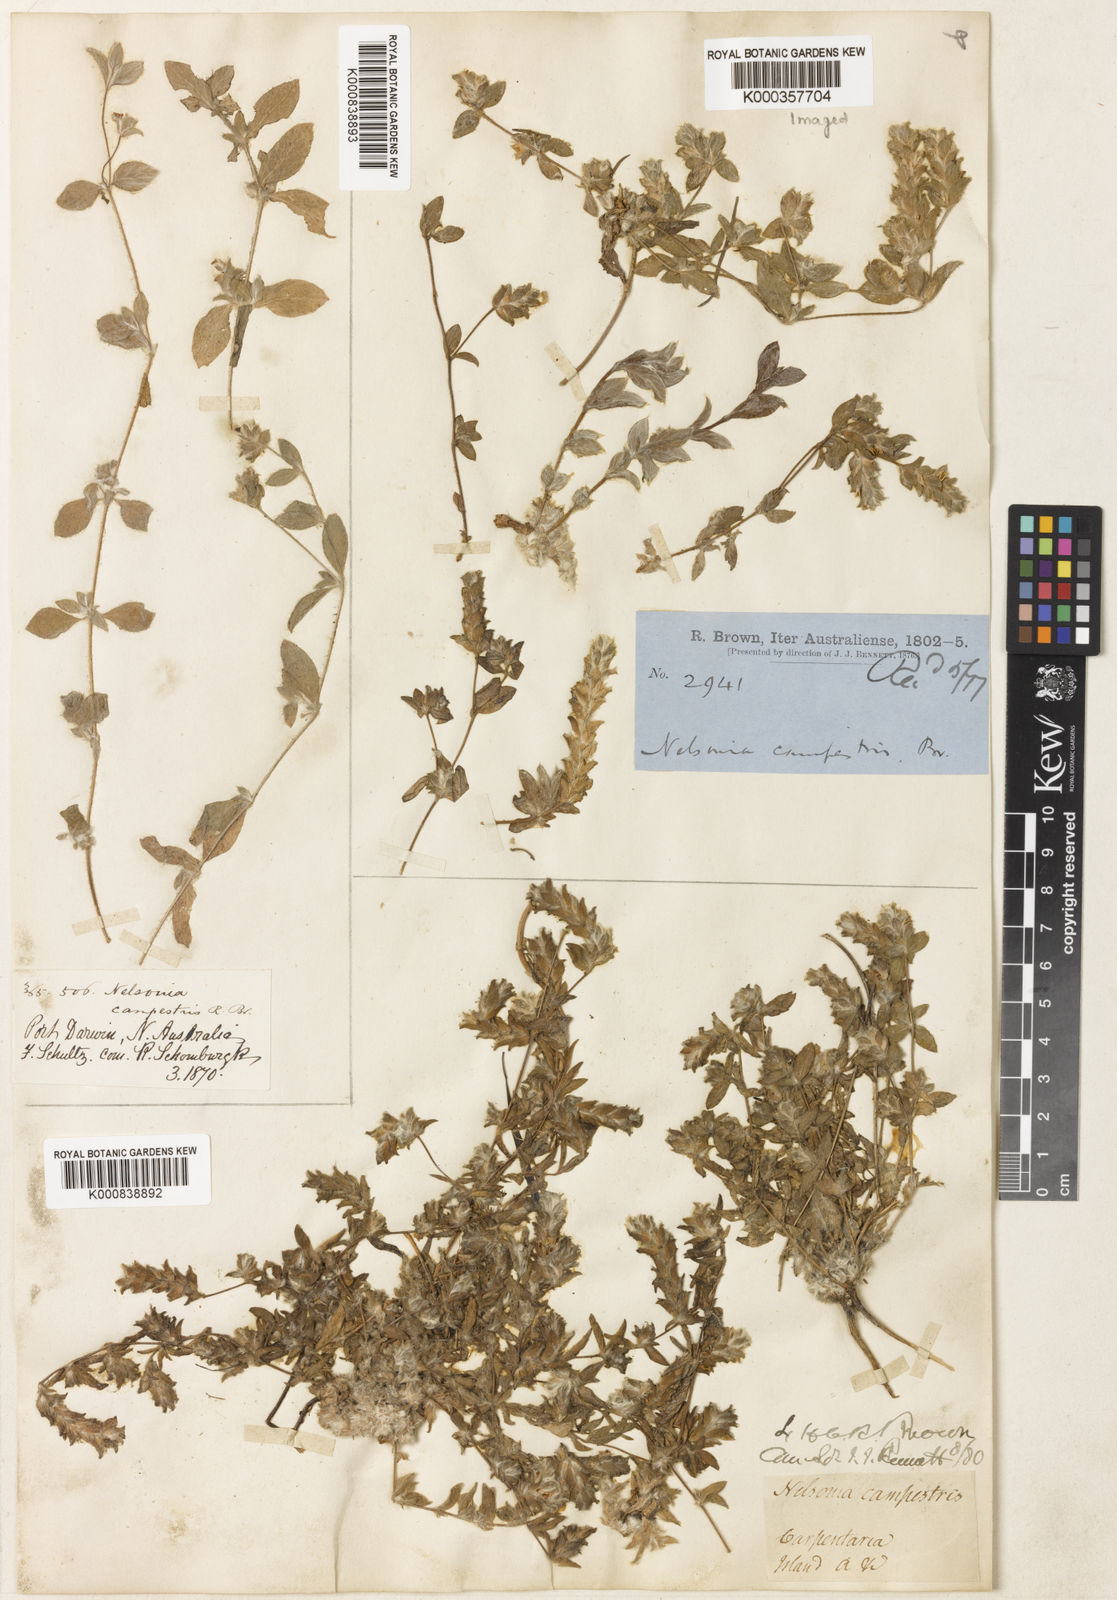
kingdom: Plantae
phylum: Tracheophyta
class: Magnoliopsida
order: Lamiales
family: Acanthaceae
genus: Nelsonia
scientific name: Nelsonia canescens
